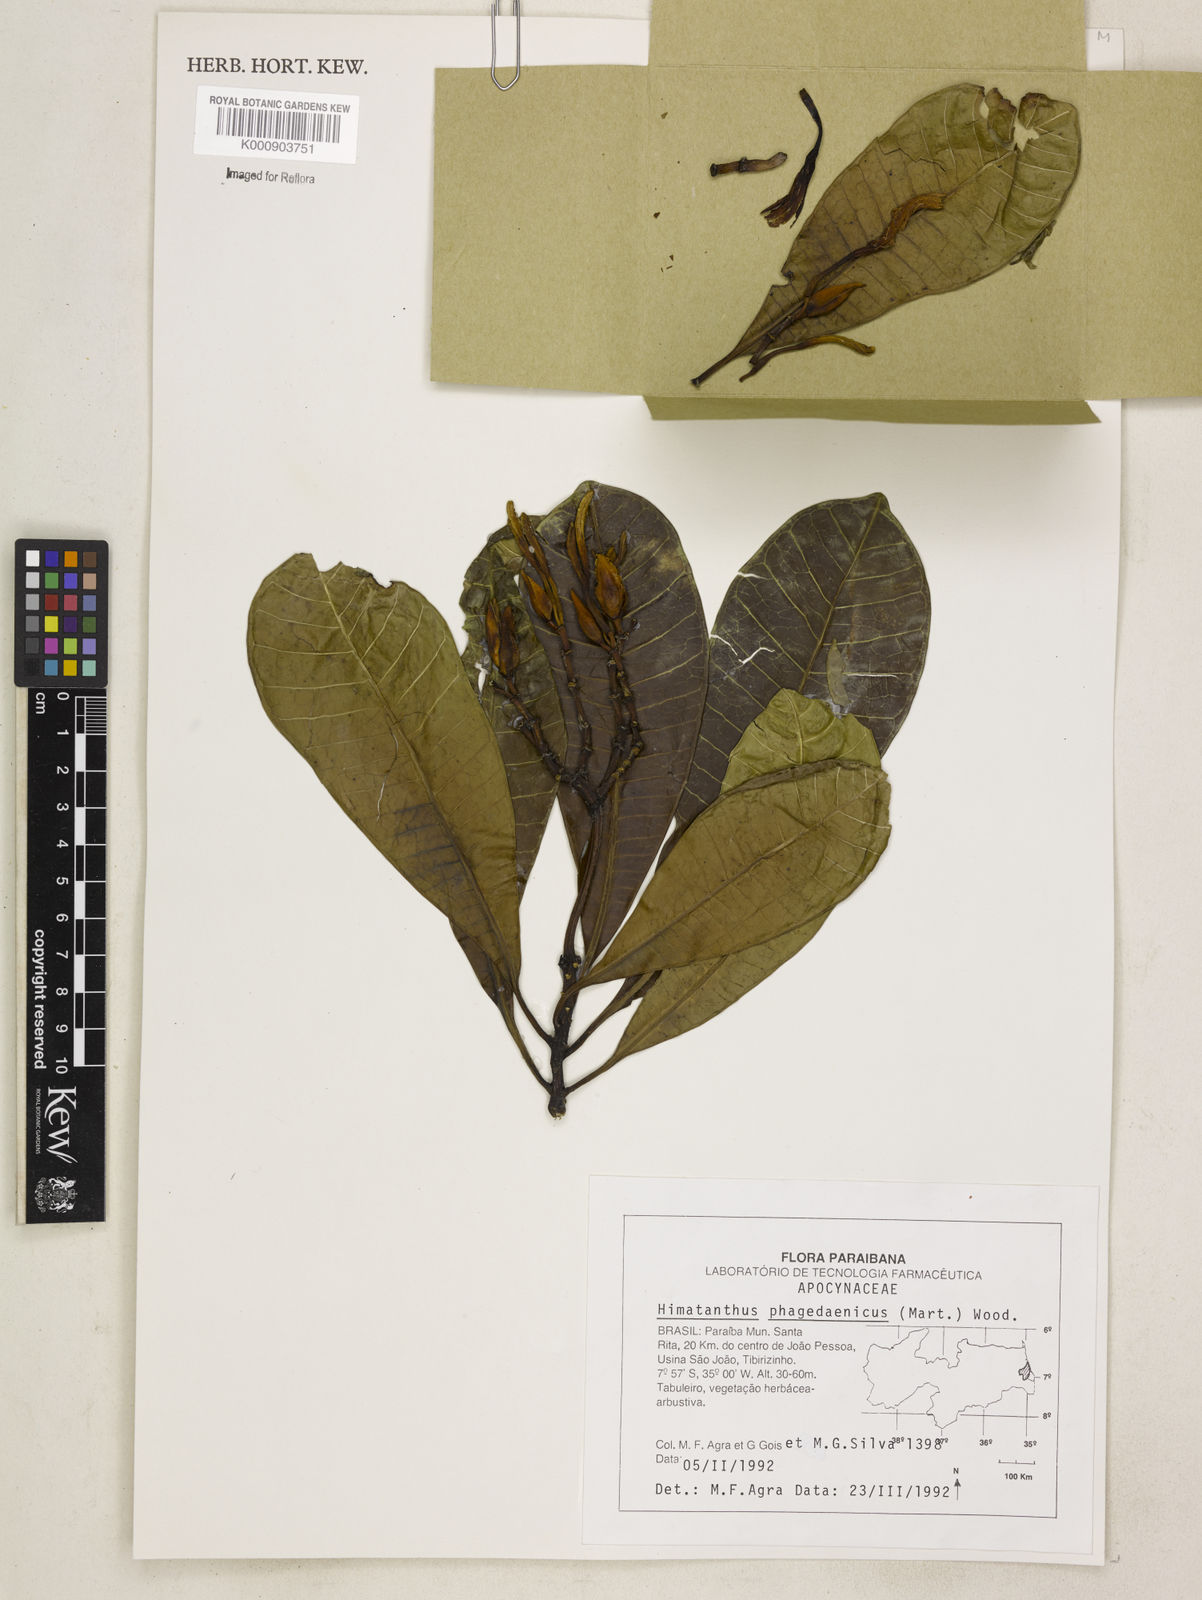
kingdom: Plantae
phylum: Tracheophyta
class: Magnoliopsida
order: Gentianales
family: Apocynaceae
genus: Himatanthus
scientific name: Himatanthus phagedaenicus
